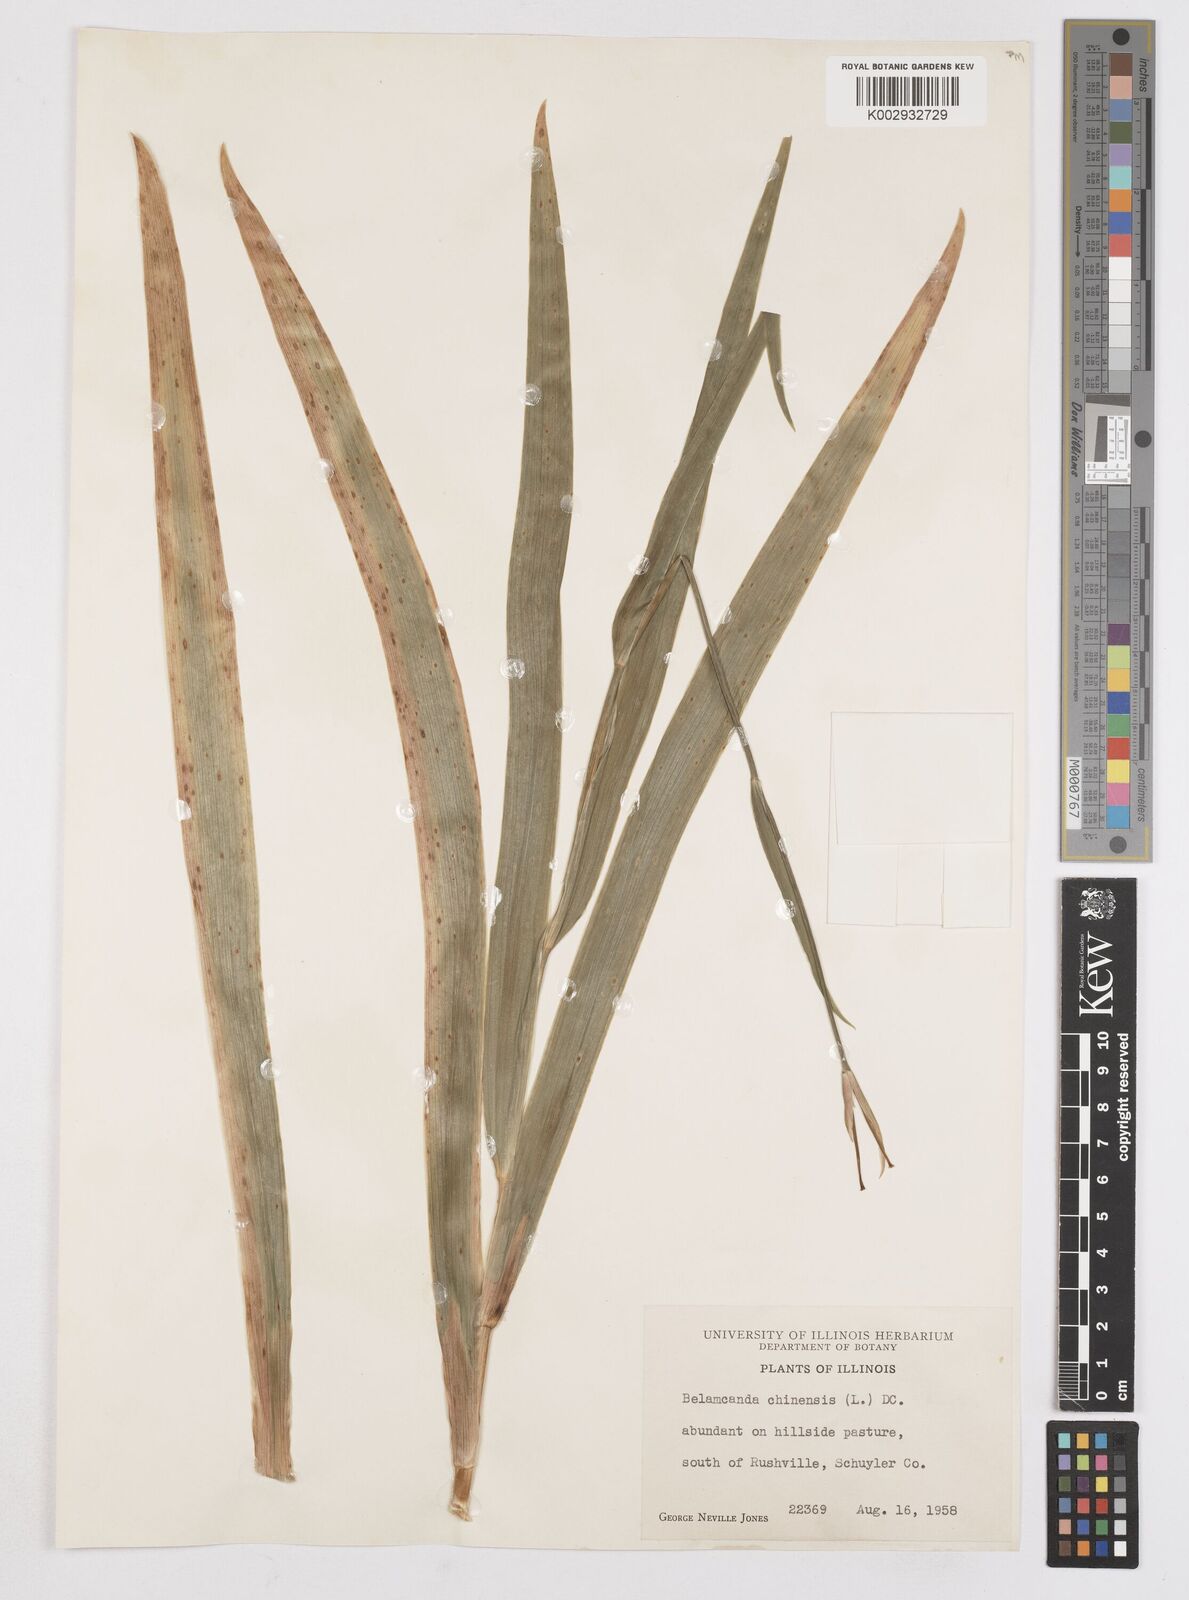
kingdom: Plantae
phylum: Tracheophyta
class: Liliopsida
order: Asparagales
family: Iridaceae
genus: Iris
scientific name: Iris susiana
